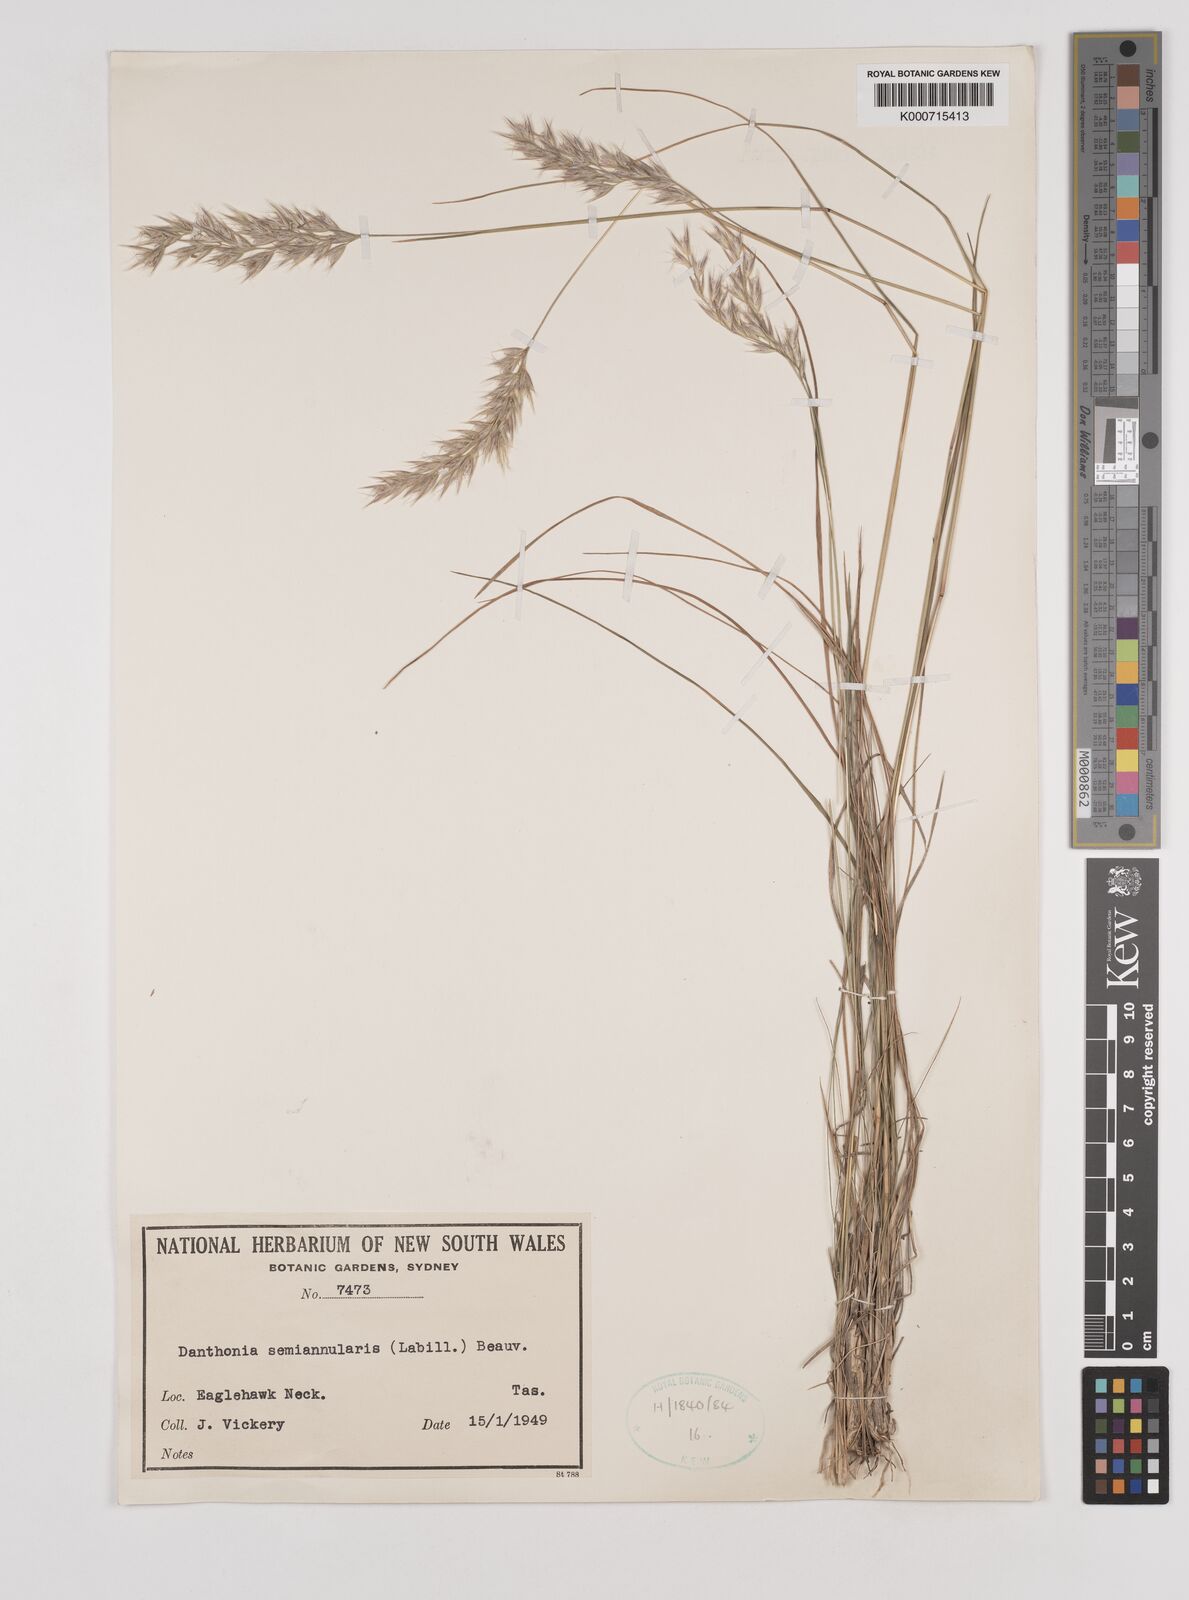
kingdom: Plantae
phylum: Tracheophyta
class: Liliopsida
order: Poales
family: Poaceae
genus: Rytidosperma
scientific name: Rytidosperma semiannulare
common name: Tasmanian wallaby grass
